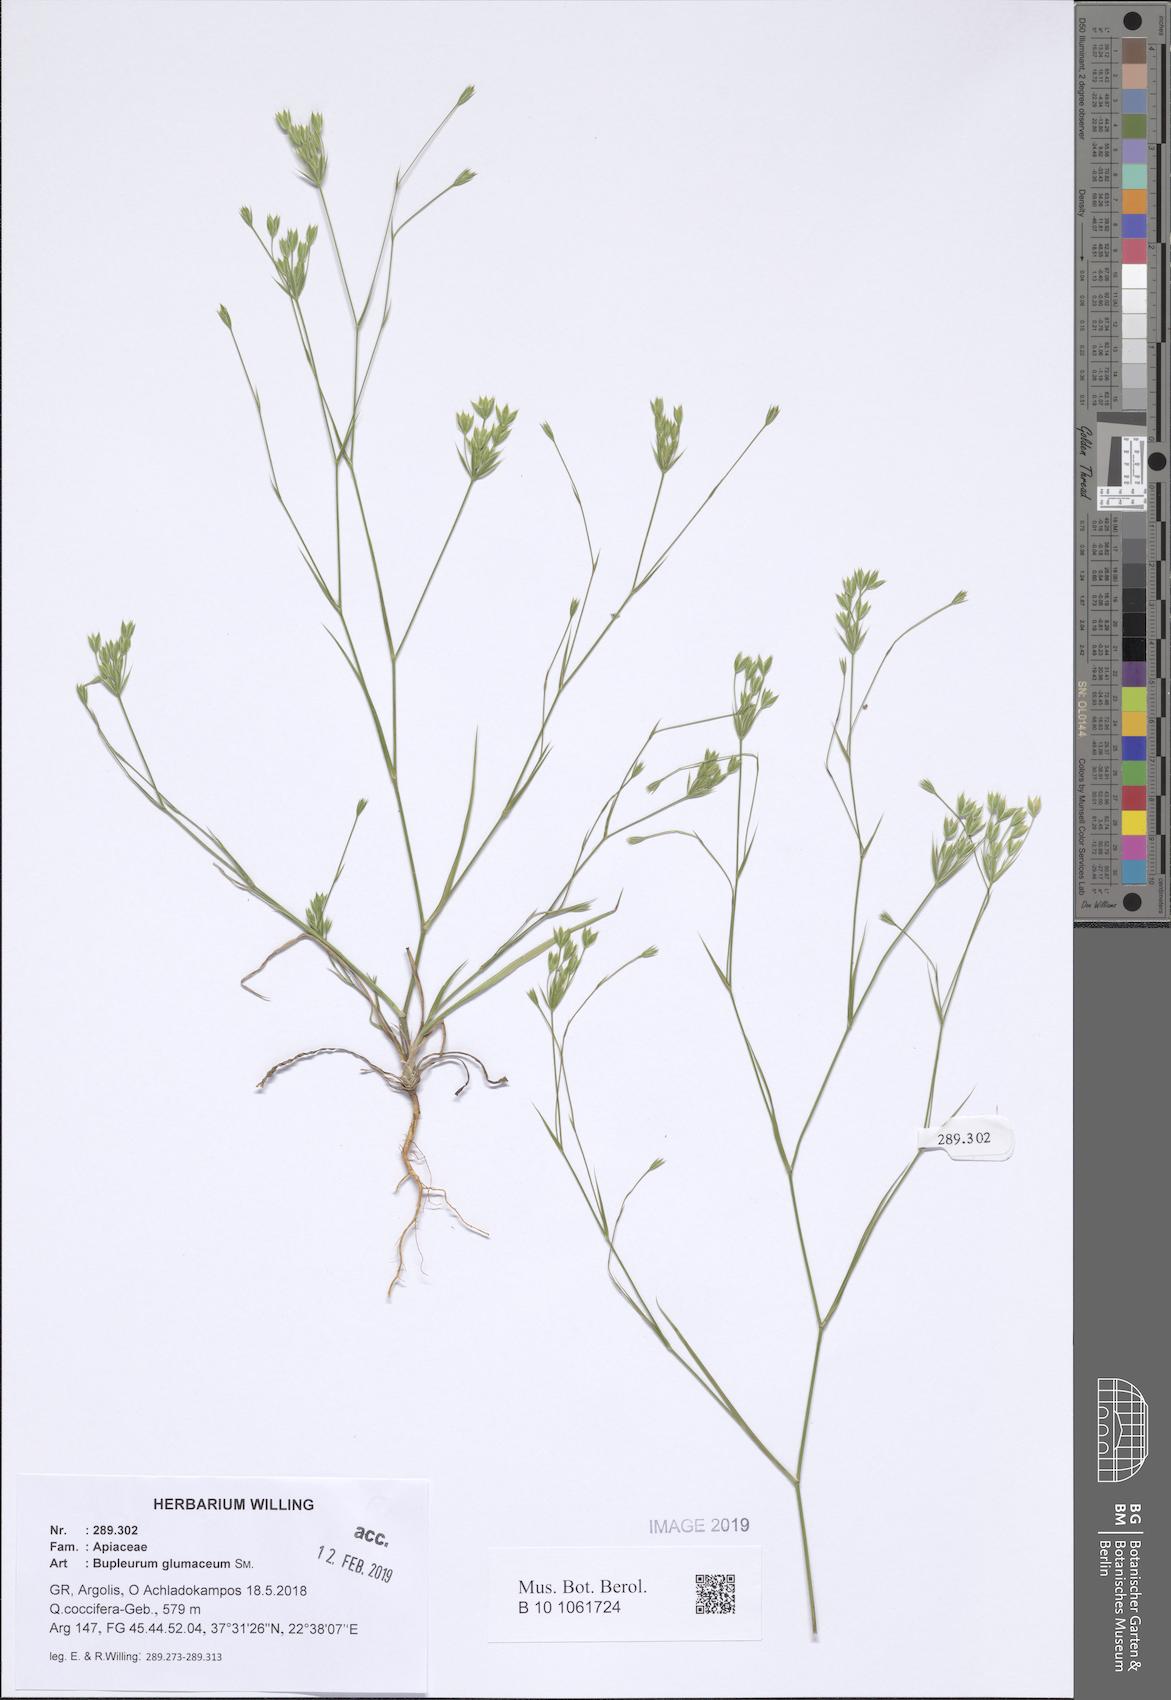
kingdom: Plantae
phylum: Tracheophyta
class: Magnoliopsida
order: Apiales
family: Apiaceae
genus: Bupleurum
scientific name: Bupleurum glumaceum
